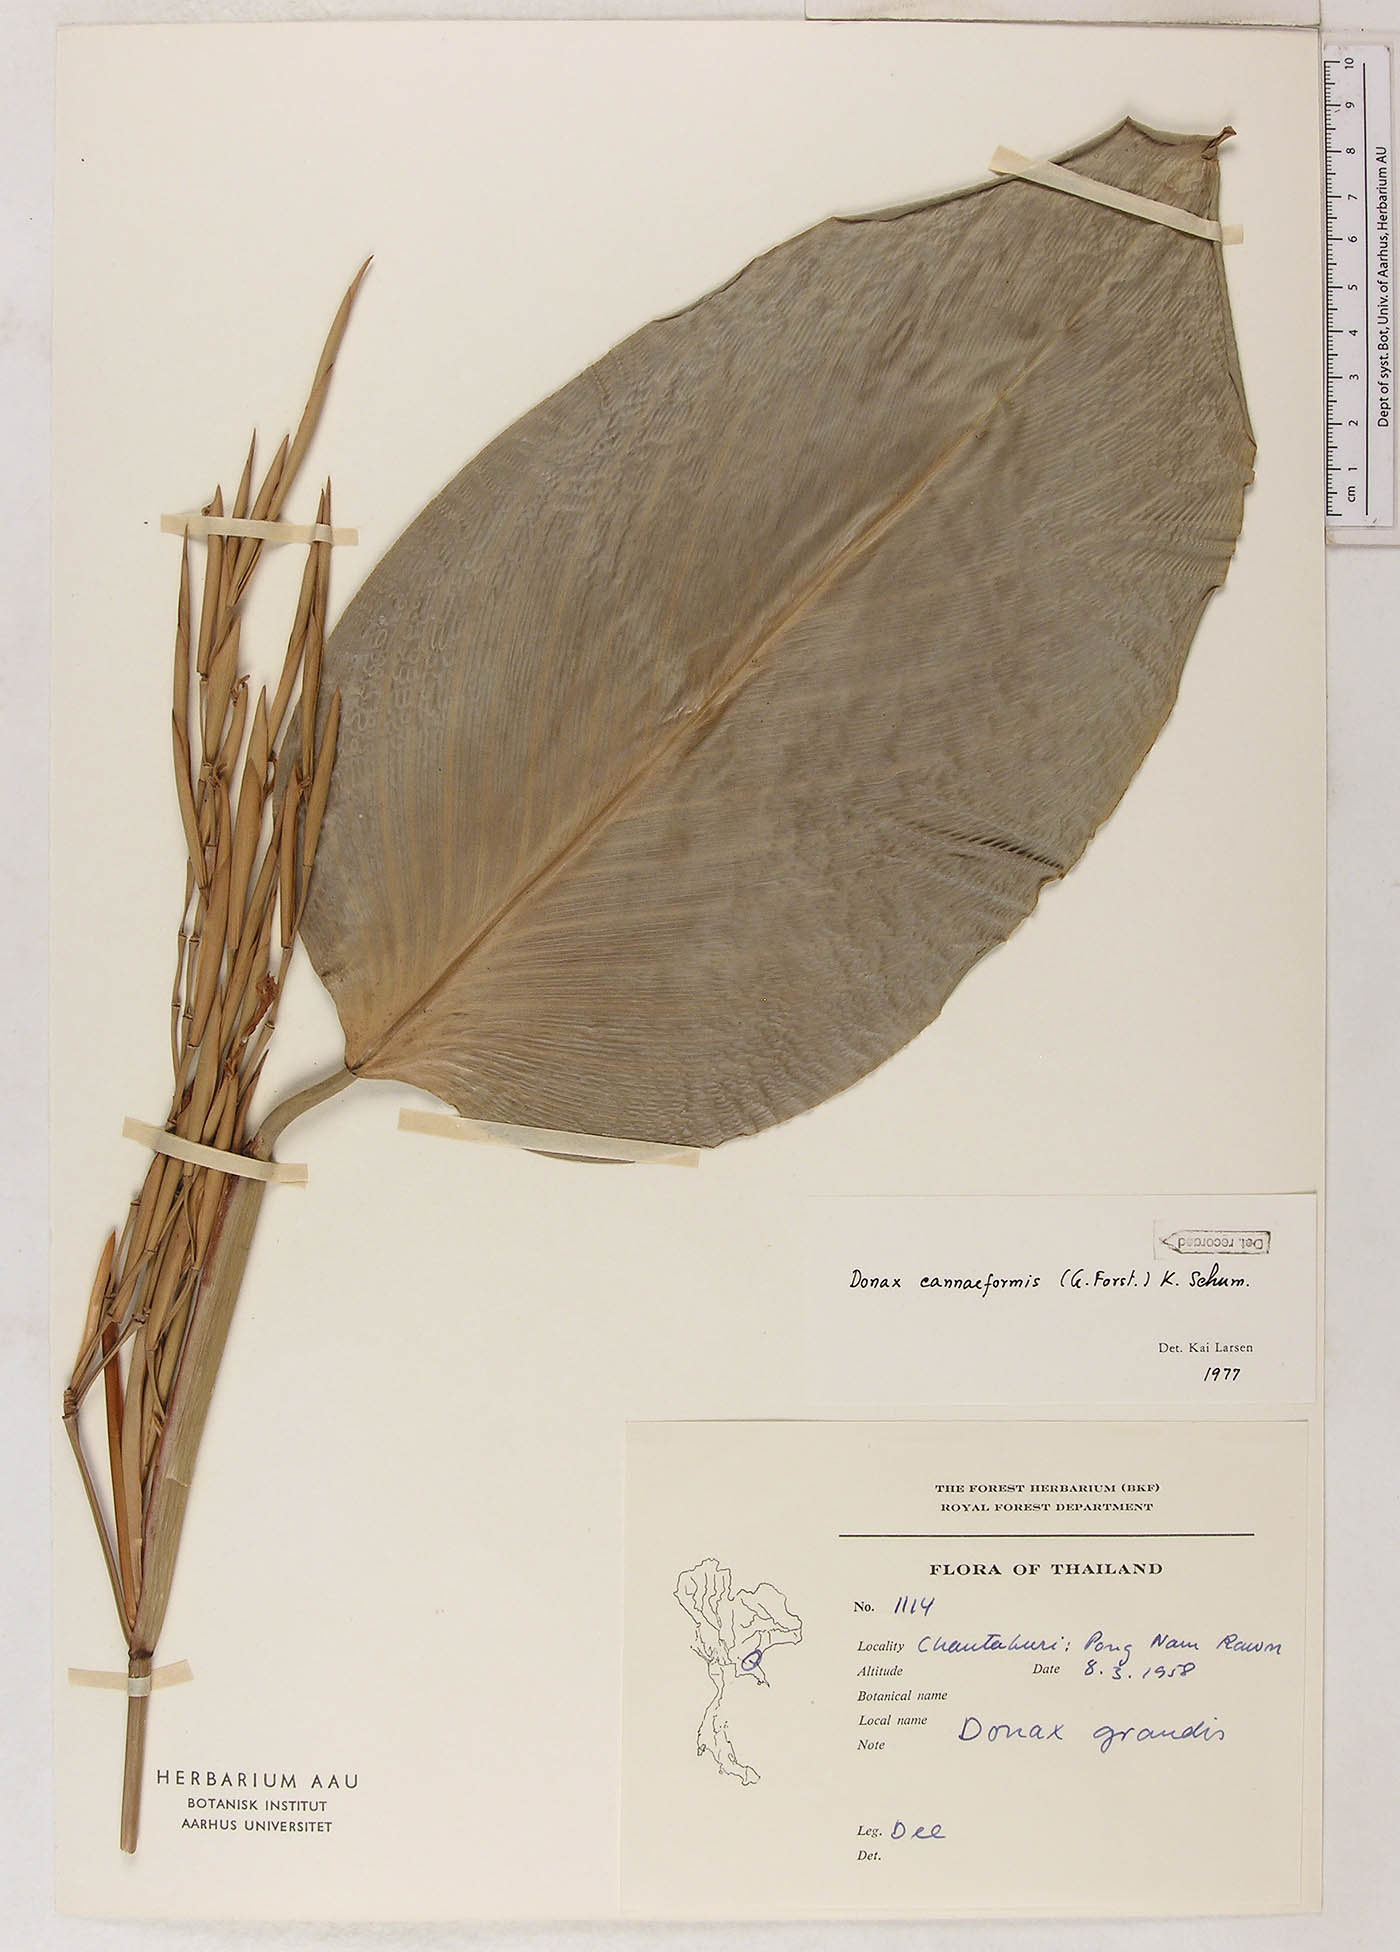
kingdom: Plantae
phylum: Tracheophyta
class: Liliopsida
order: Zingiberales
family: Marantaceae
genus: Donax
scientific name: Donax canniformis
